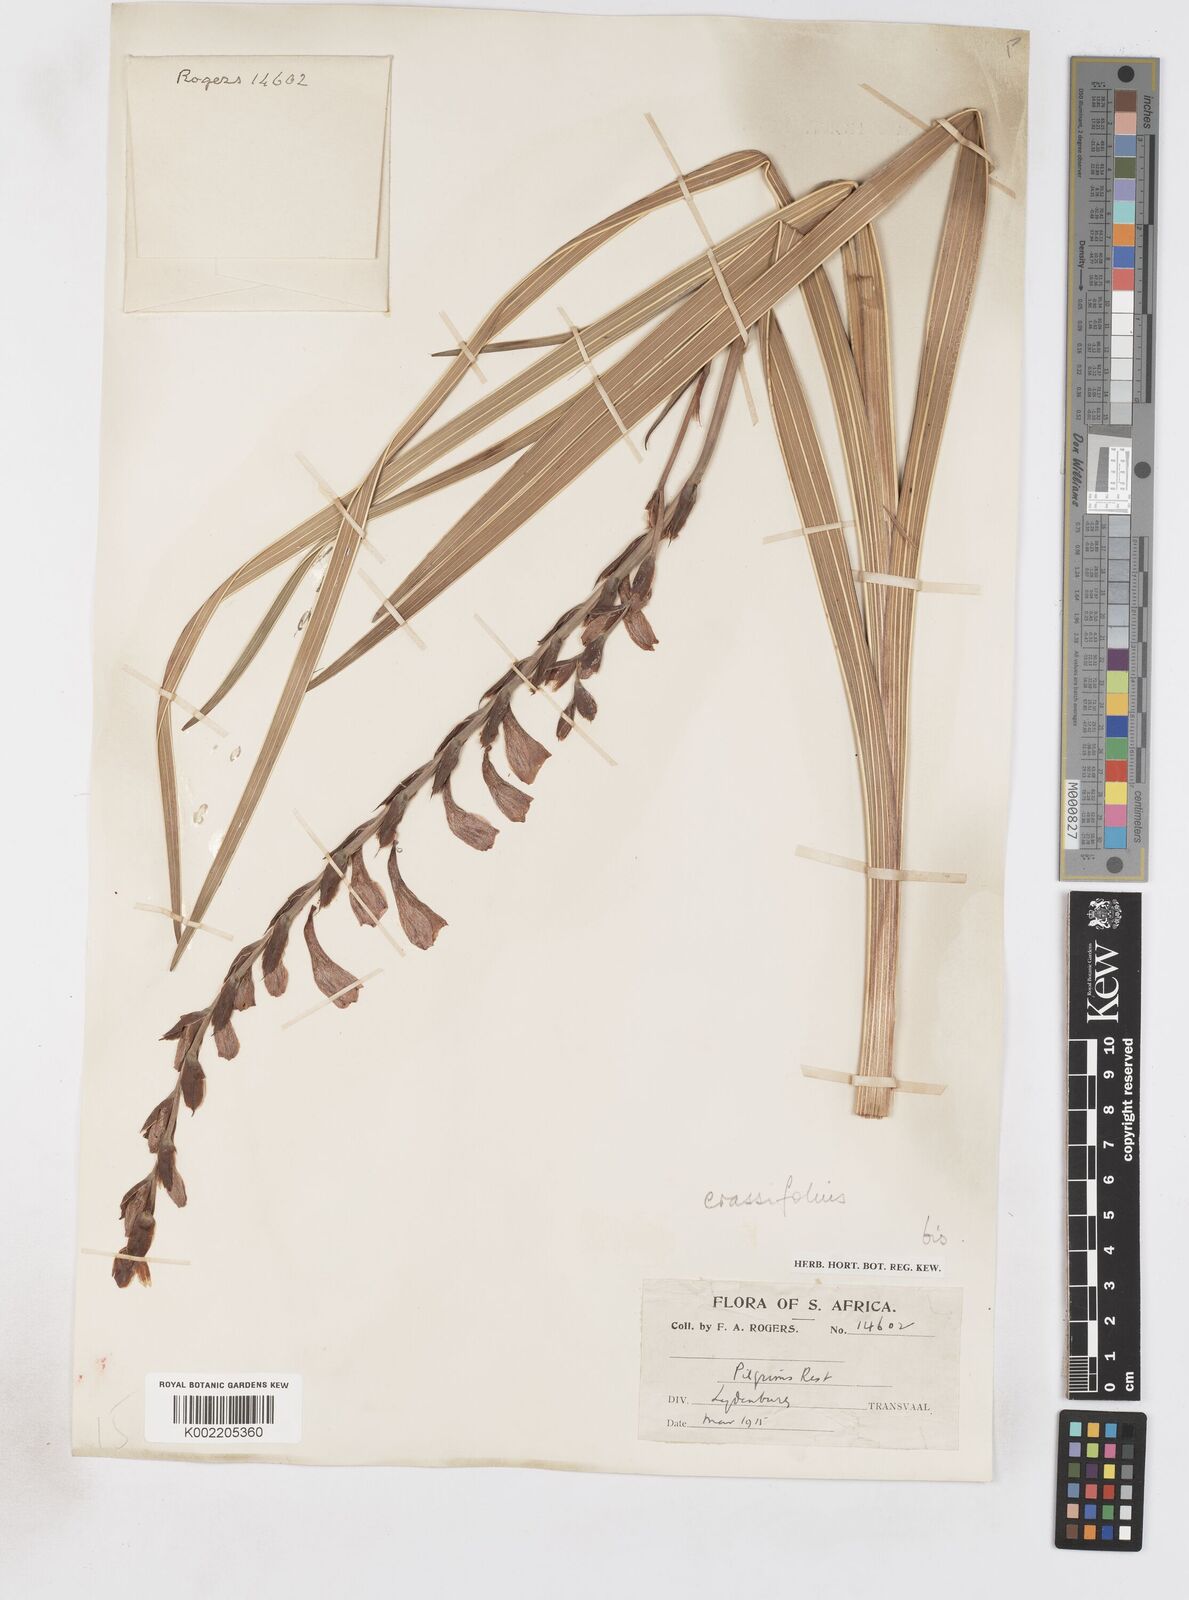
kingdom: Plantae
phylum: Tracheophyta
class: Liliopsida
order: Asparagales
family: Iridaceae
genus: Gladiolus
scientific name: Gladiolus crassifolius
